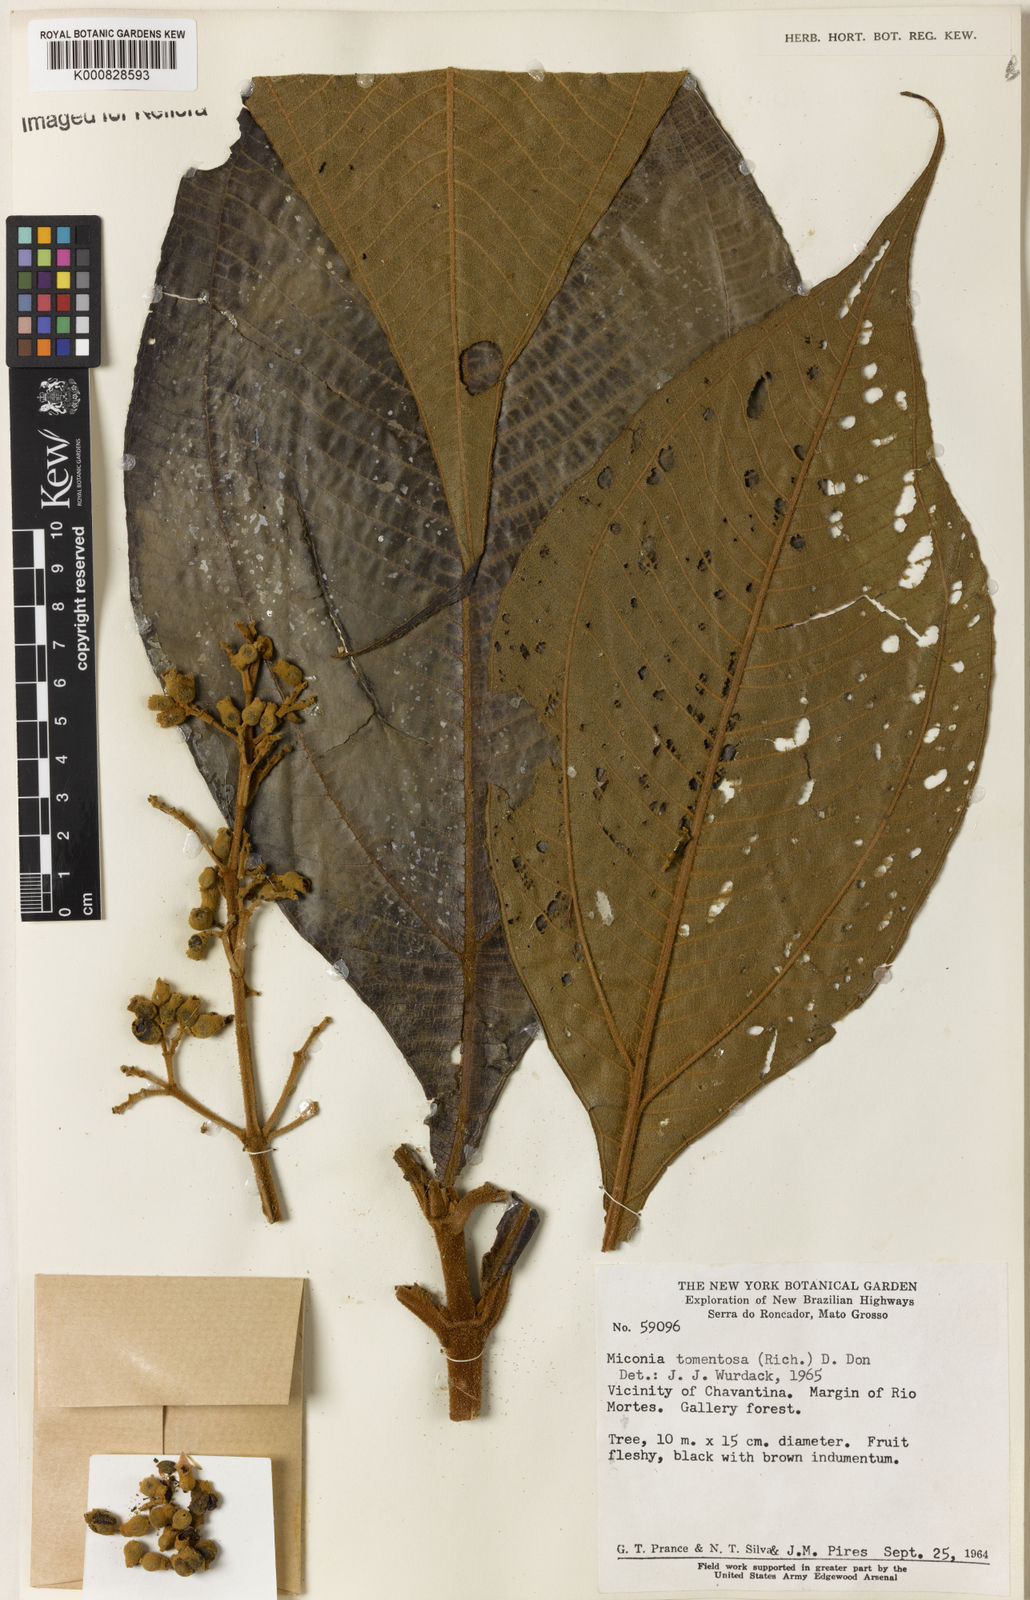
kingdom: Plantae
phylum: Tracheophyta
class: Magnoliopsida
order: Myrtales
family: Melastomataceae
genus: Miconia
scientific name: Miconia tomentosa
